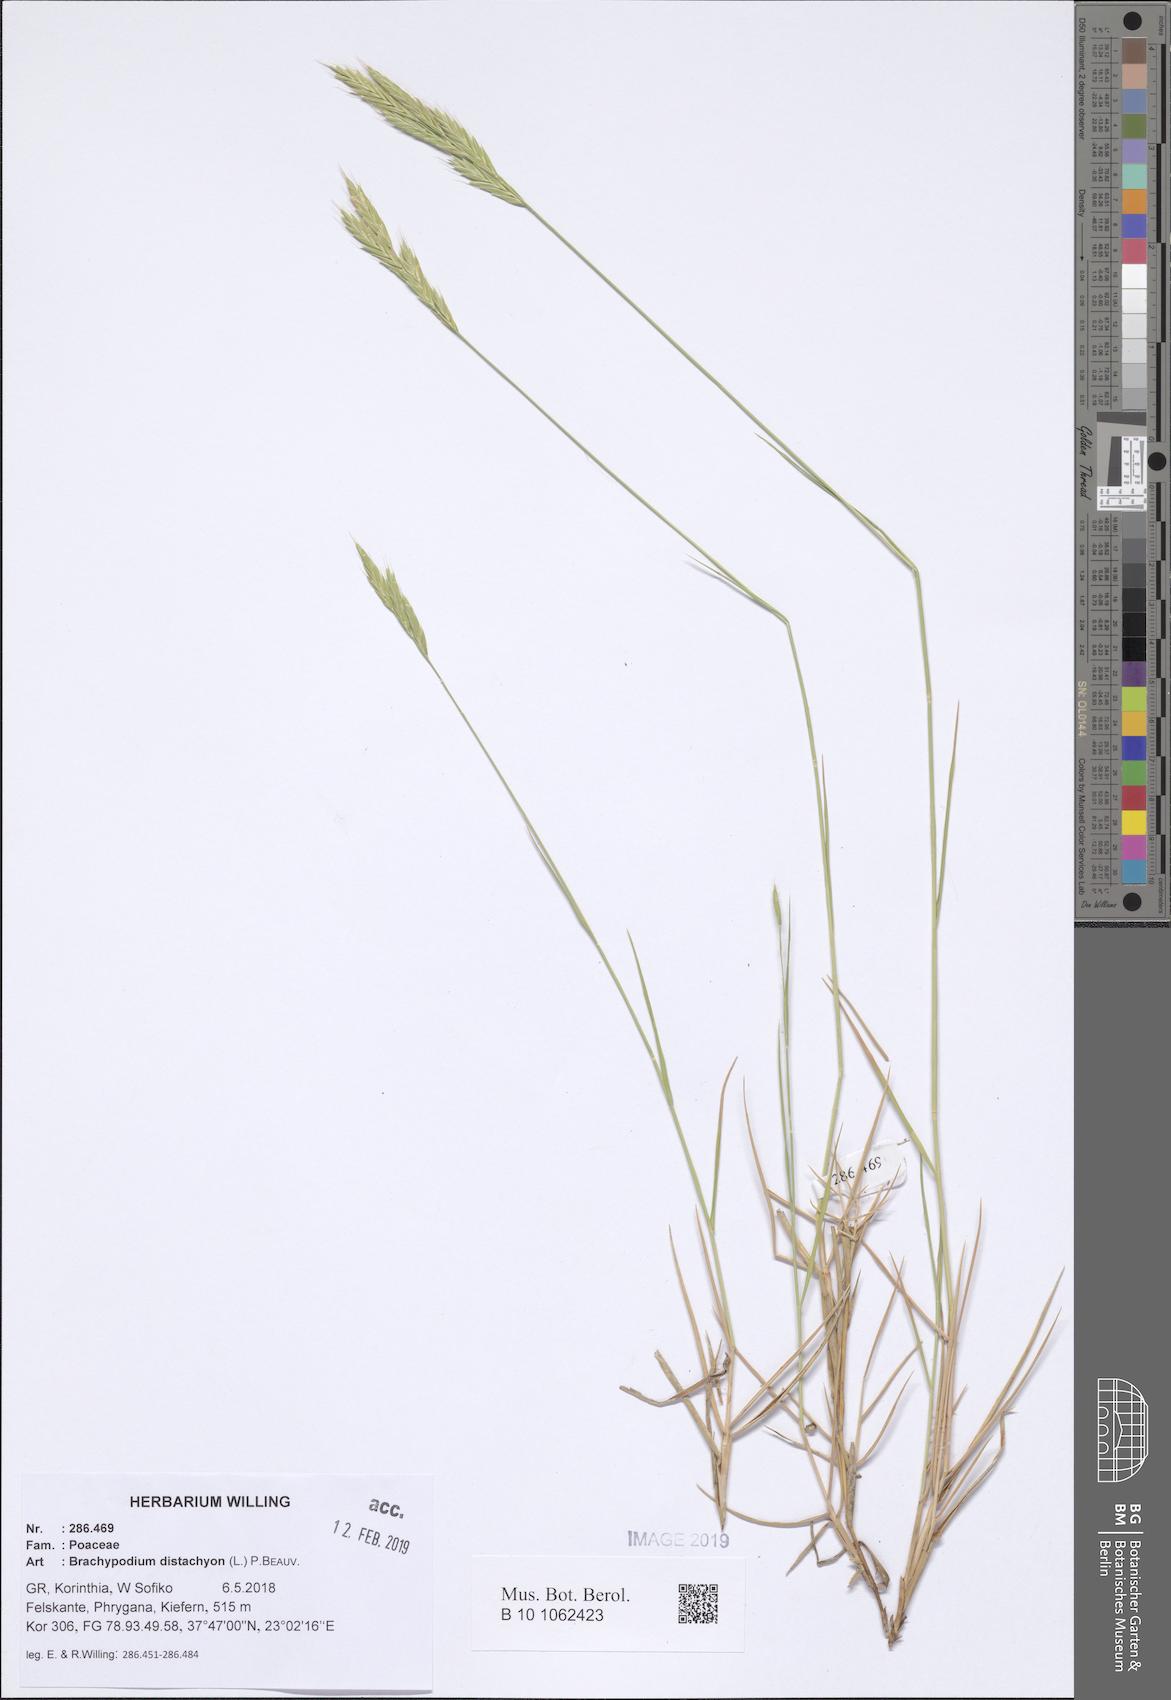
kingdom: Plantae
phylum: Tracheophyta
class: Liliopsida
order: Poales
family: Poaceae
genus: Brachypodium
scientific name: Brachypodium distachyon
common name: Stiff brome
